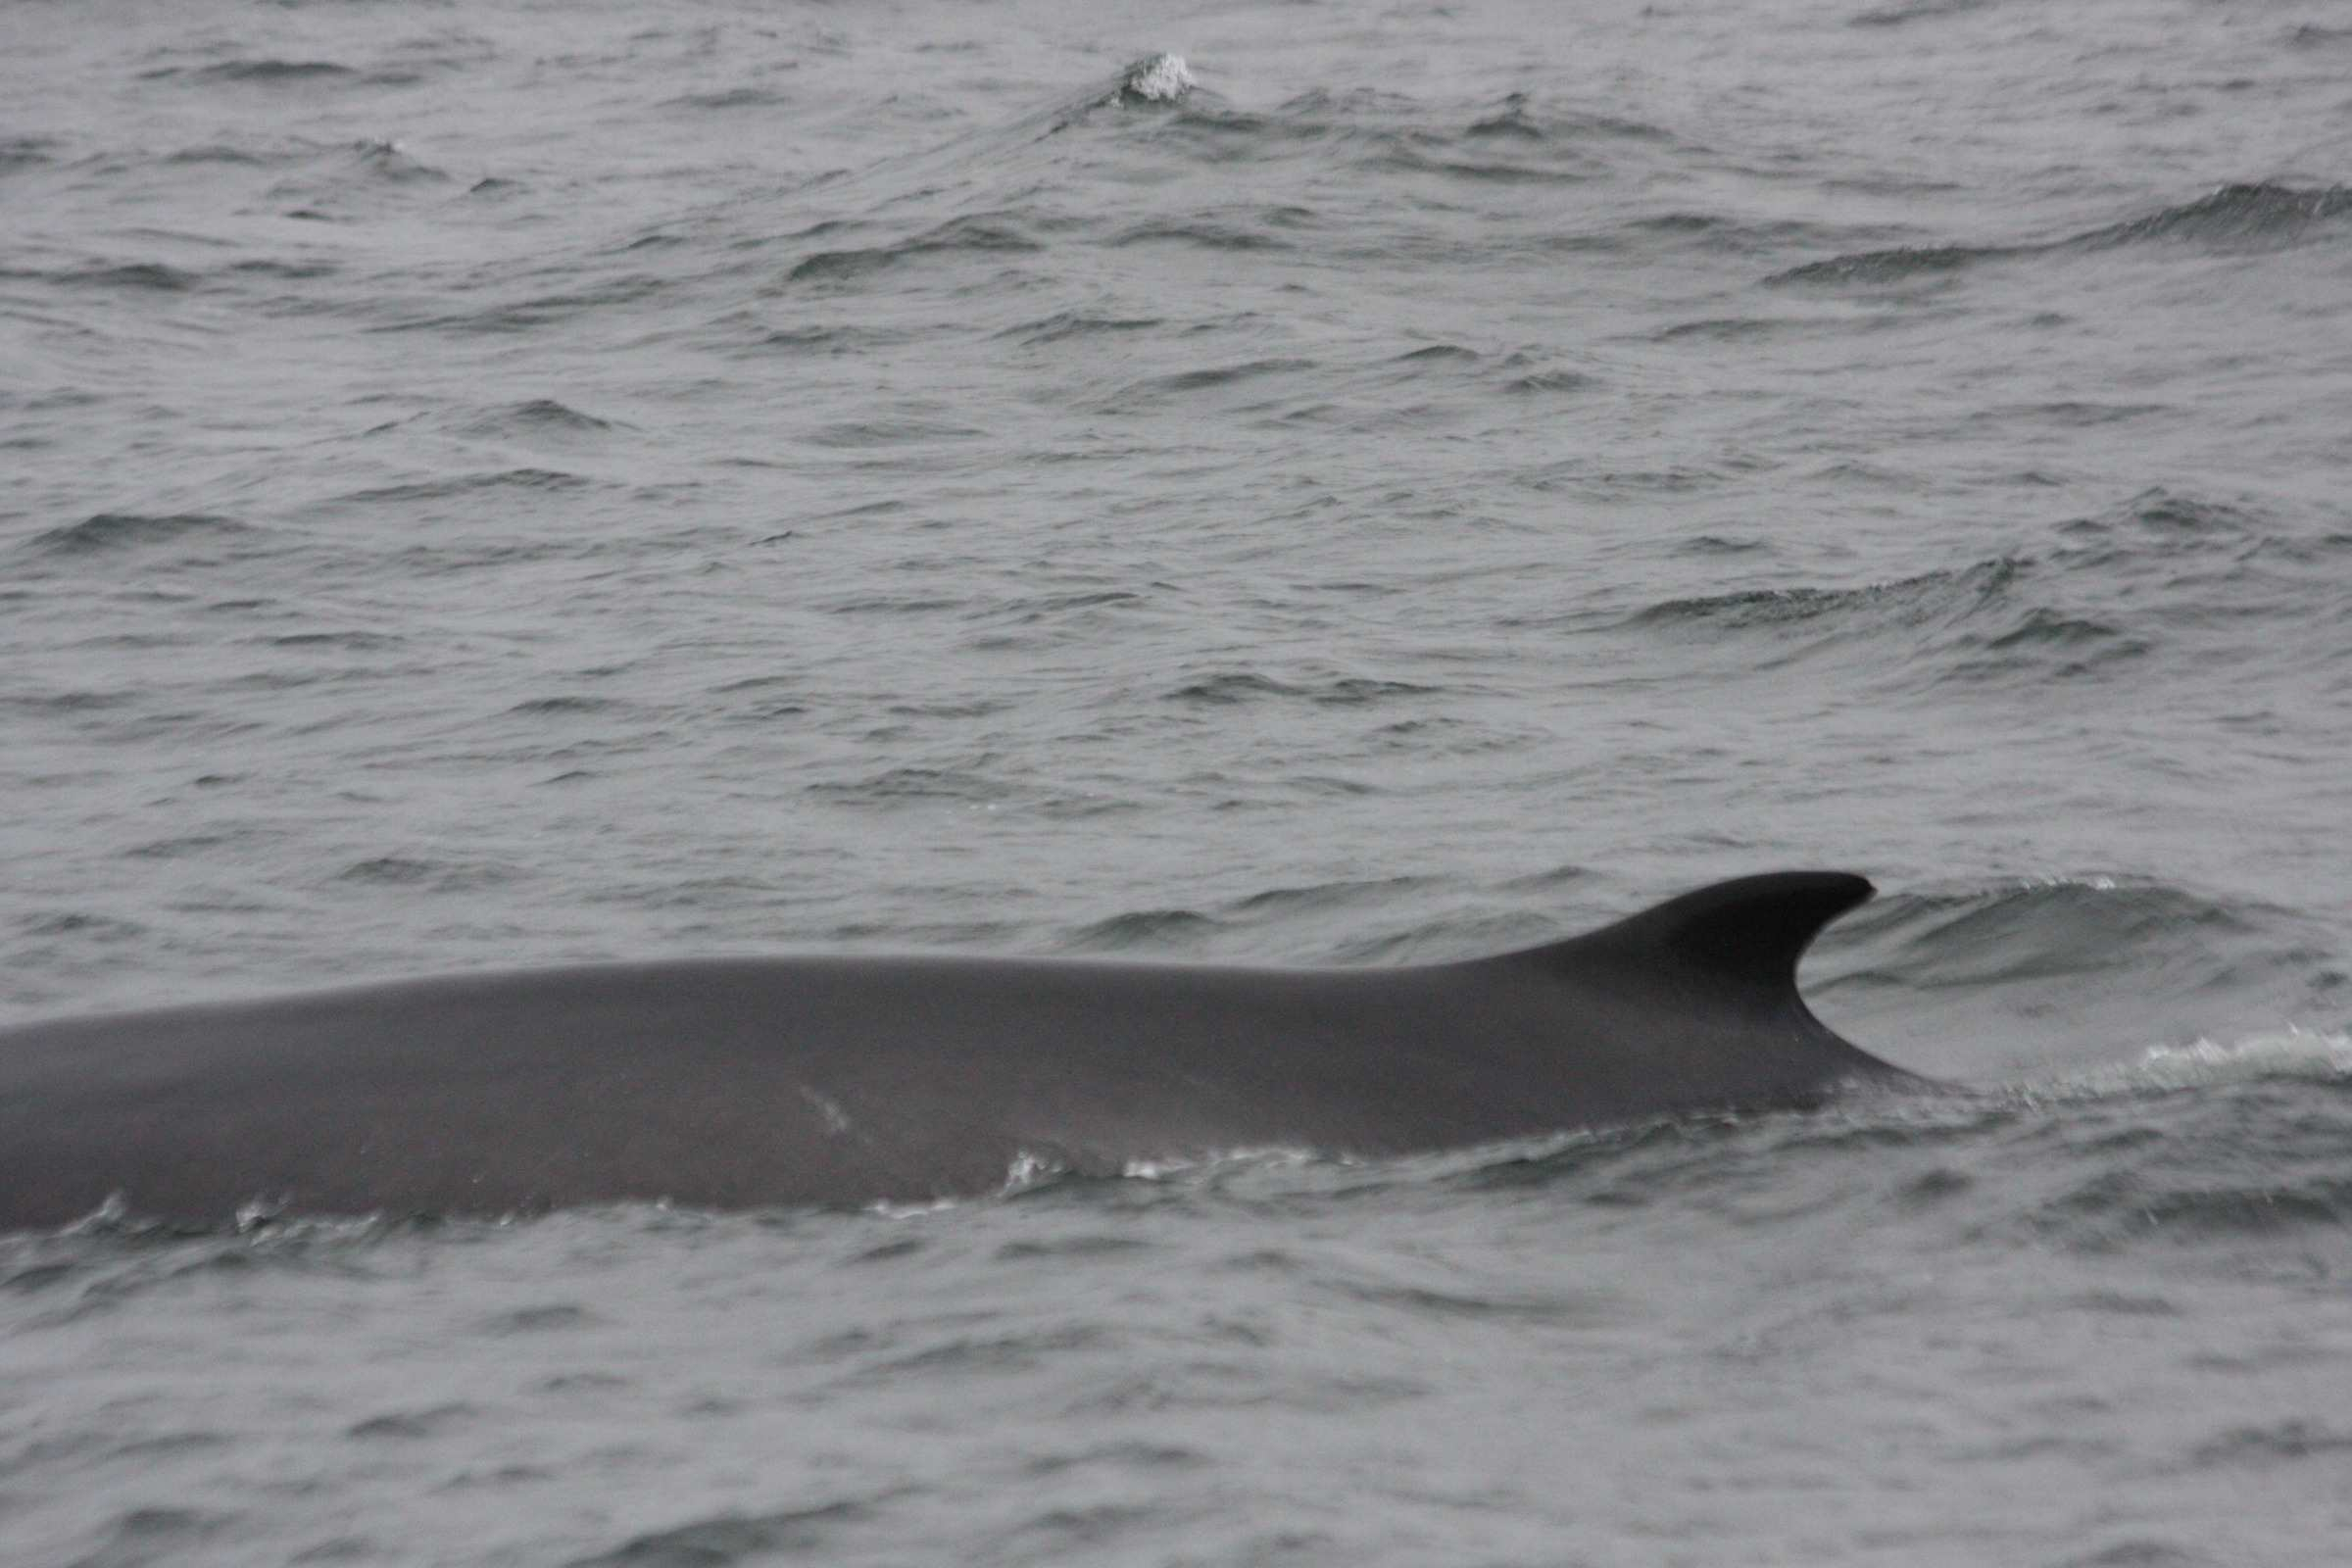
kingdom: Animalia
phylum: Chordata
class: Mammalia
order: Cetacea
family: Balaenopteridae
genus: Balaenoptera
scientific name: Balaenoptera physalus
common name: Fin whale
